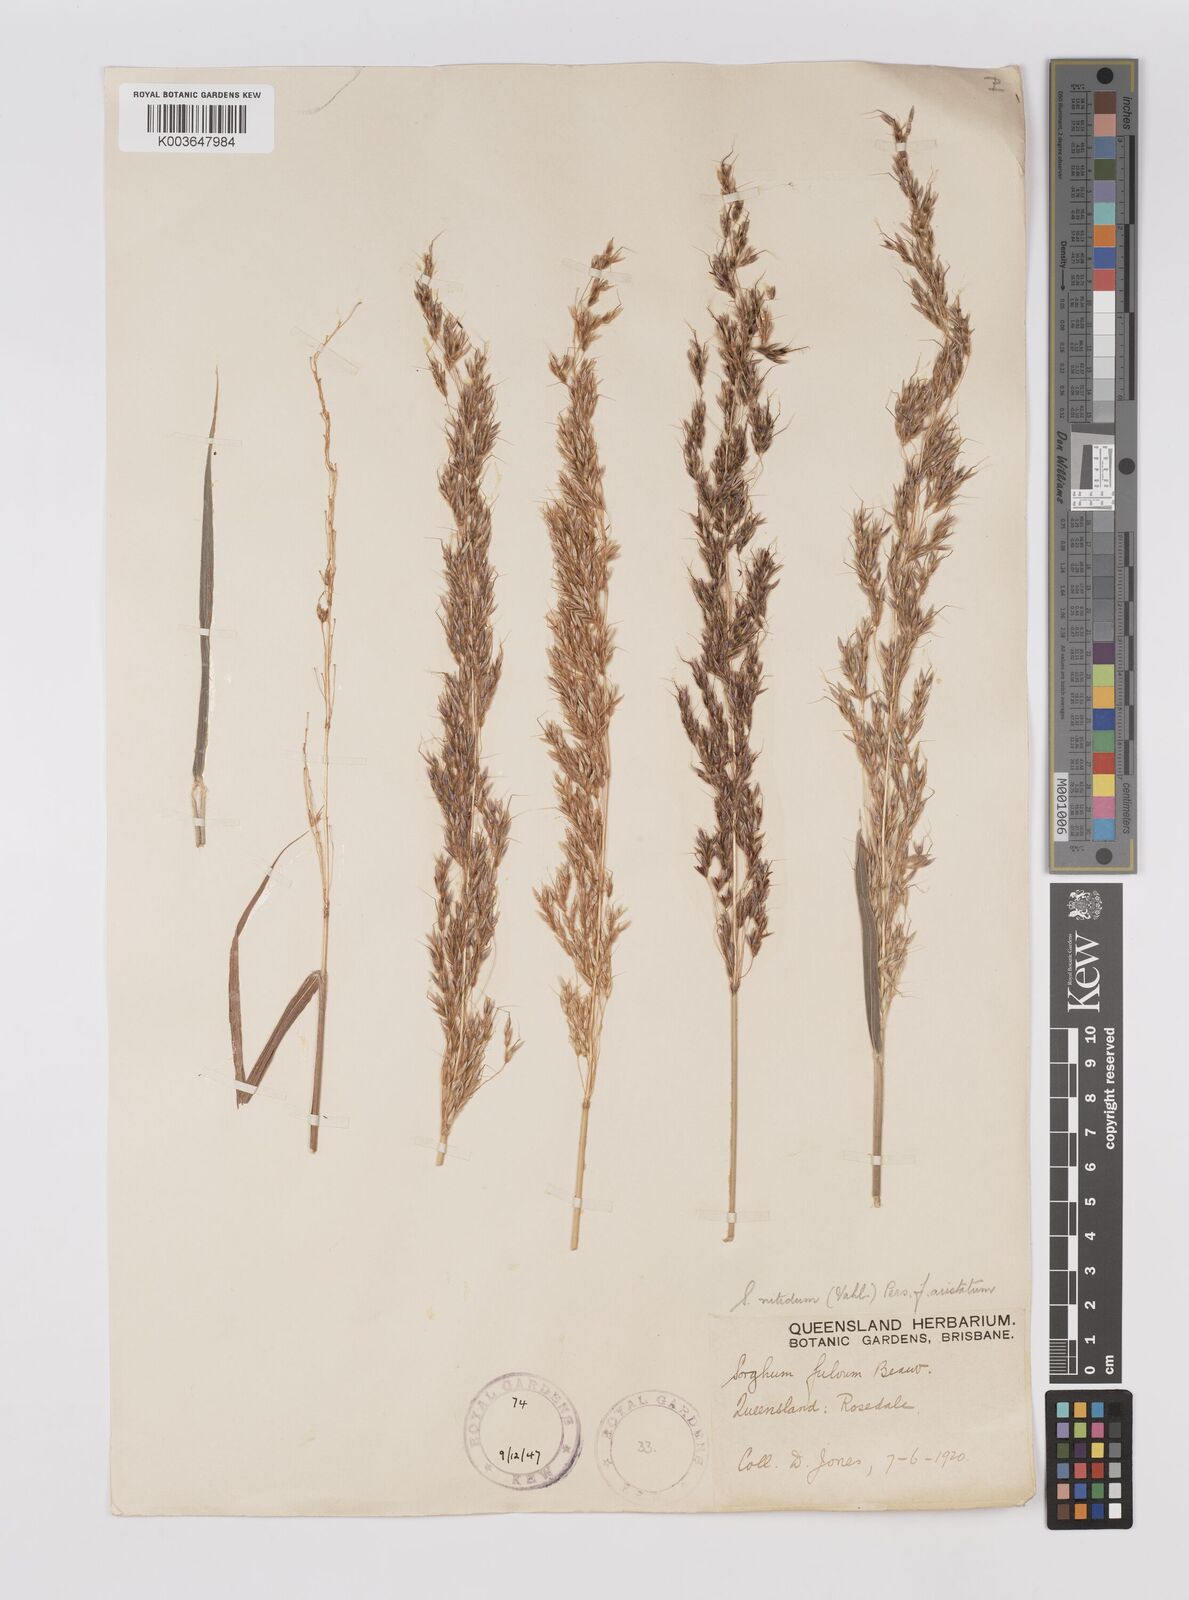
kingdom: Plantae
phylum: Tracheophyta
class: Liliopsida
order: Poales
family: Poaceae
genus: Sorghum
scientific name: Sorghum nitidum
